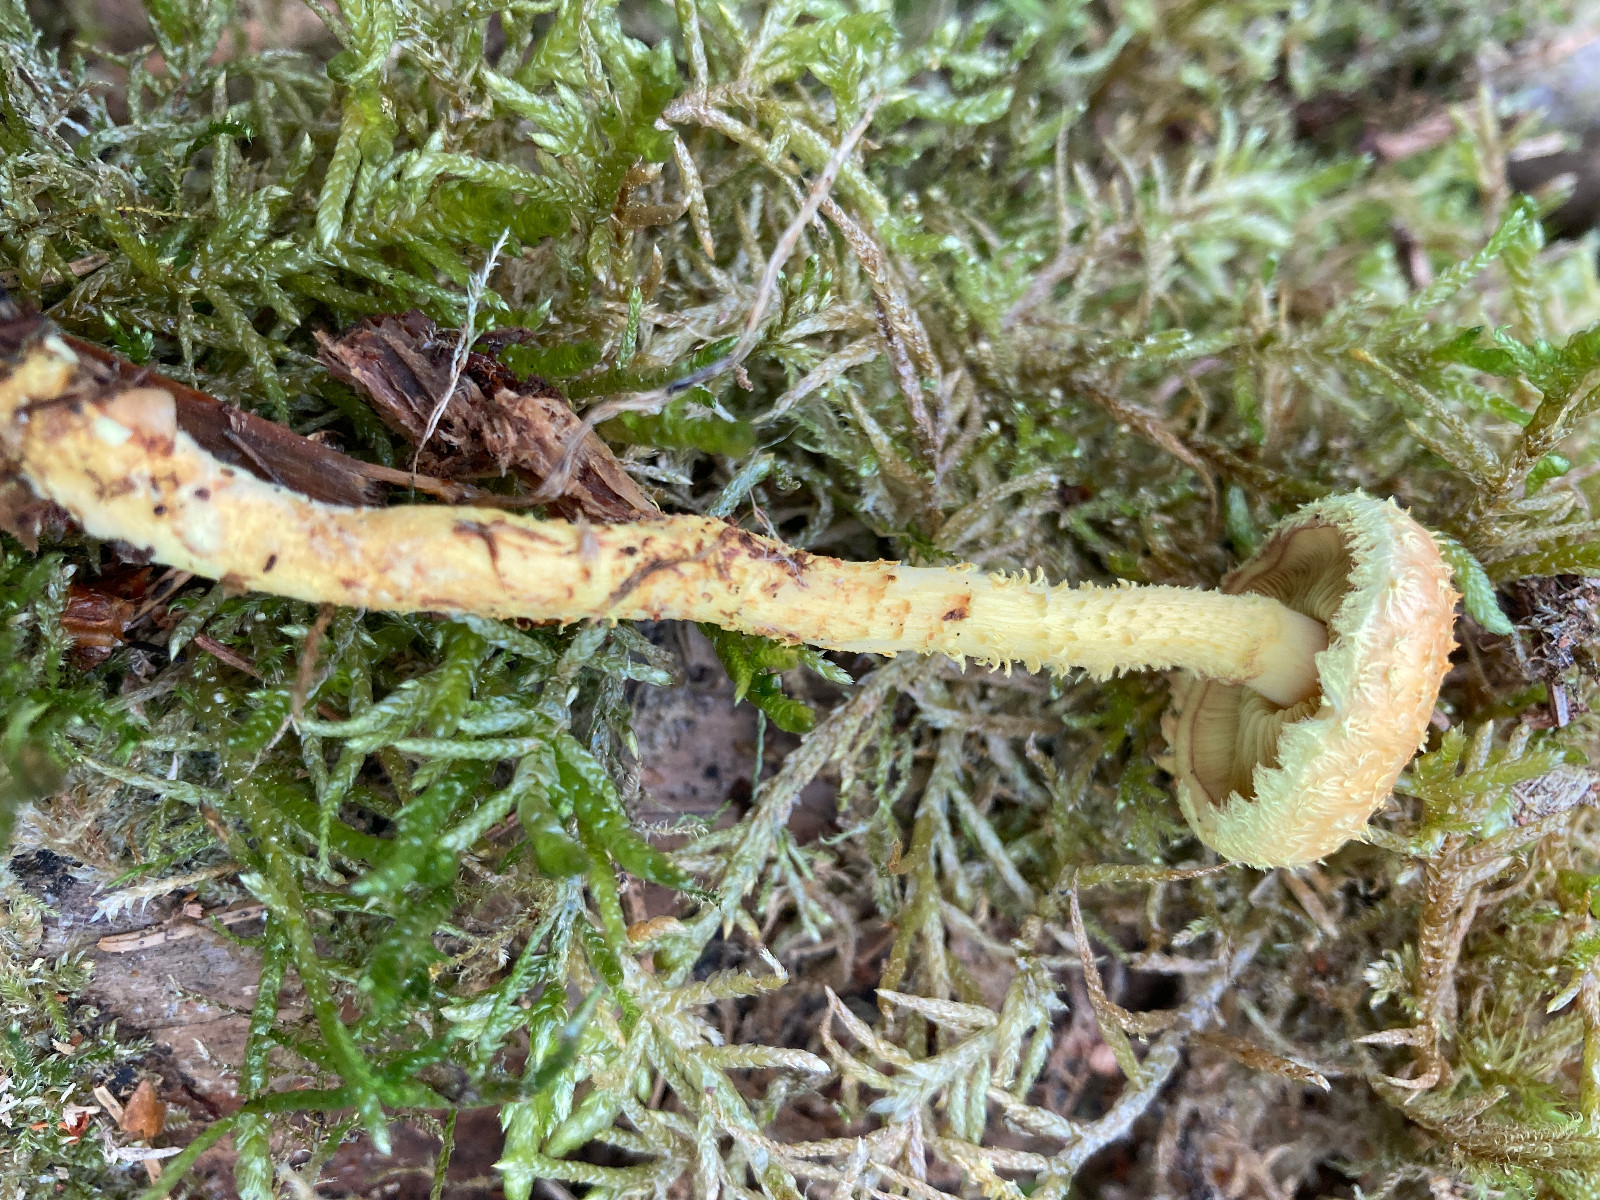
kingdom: Fungi
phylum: Basidiomycota
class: Agaricomycetes
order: Agaricales
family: Strophariaceae
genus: Pholiota
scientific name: Pholiota flammans
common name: flamme-skælhat
